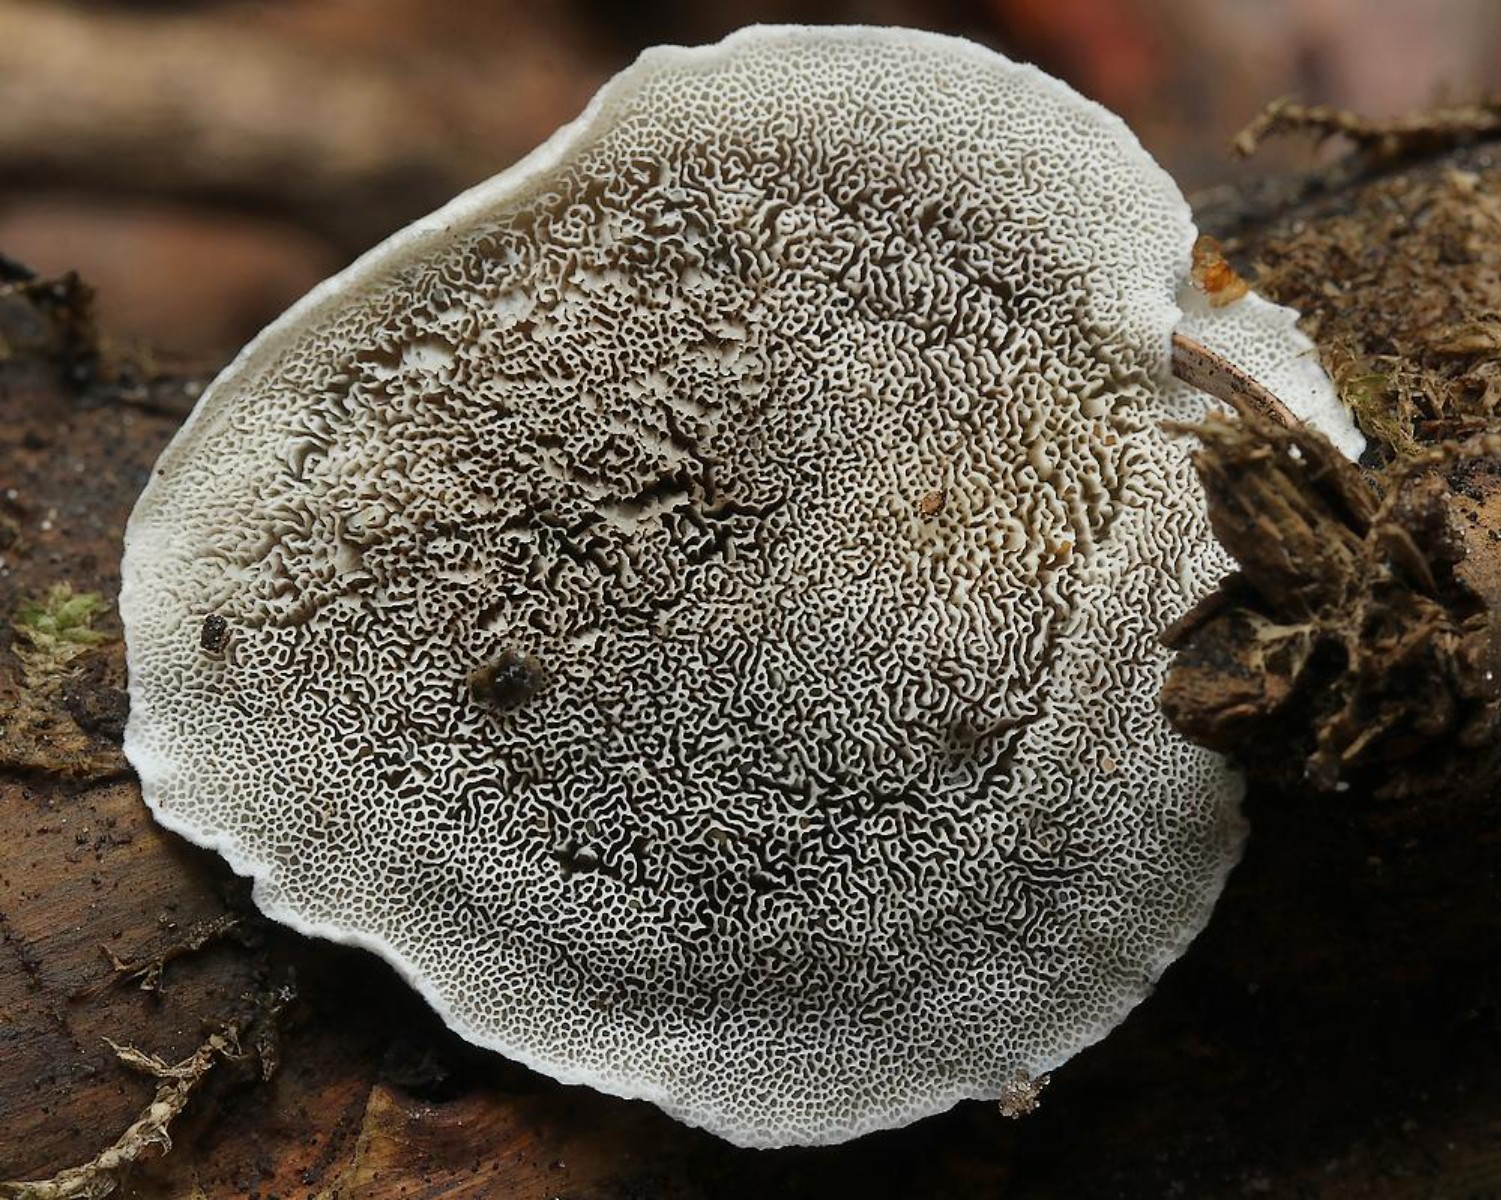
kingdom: Fungi
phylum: Basidiomycota
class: Agaricomycetes
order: Polyporales
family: Phanerochaetaceae
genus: Bjerkandera
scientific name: Bjerkandera adusta
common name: sveden sodporesvamp
